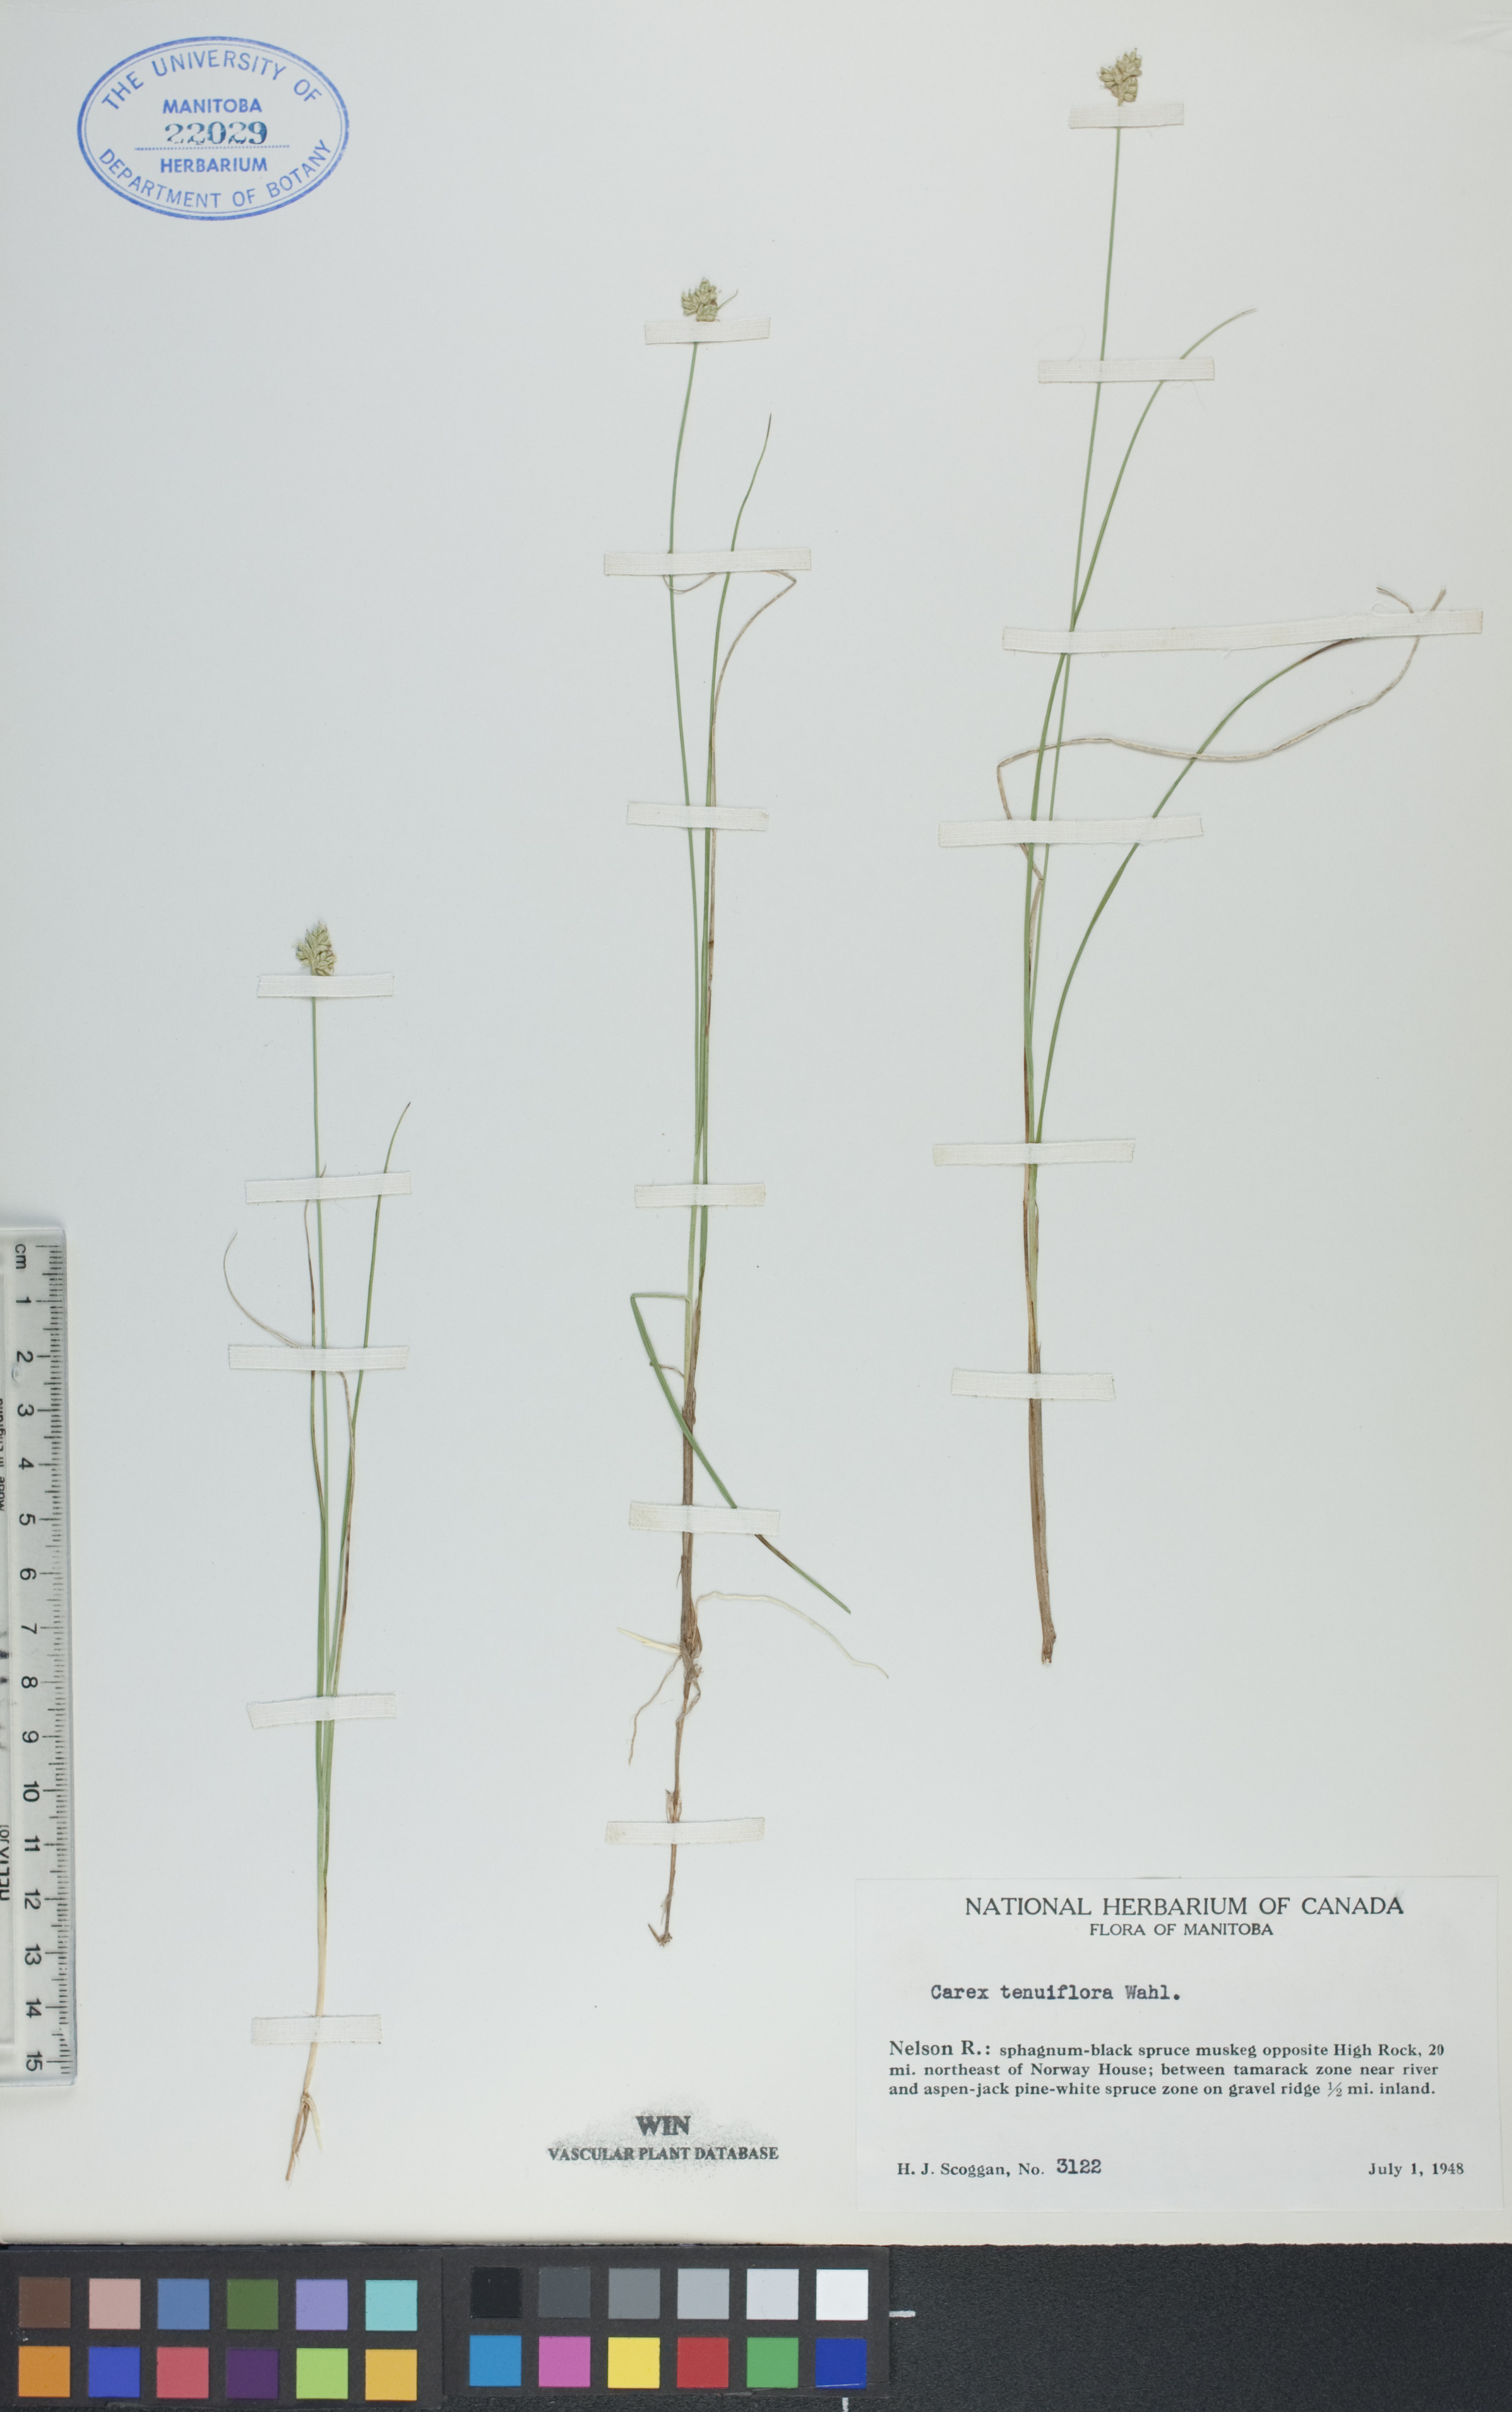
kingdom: Plantae
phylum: Tracheophyta
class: Liliopsida
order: Poales
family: Cyperaceae
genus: Carex
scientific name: Carex tenuiflora
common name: Sparse-flowered sedge
